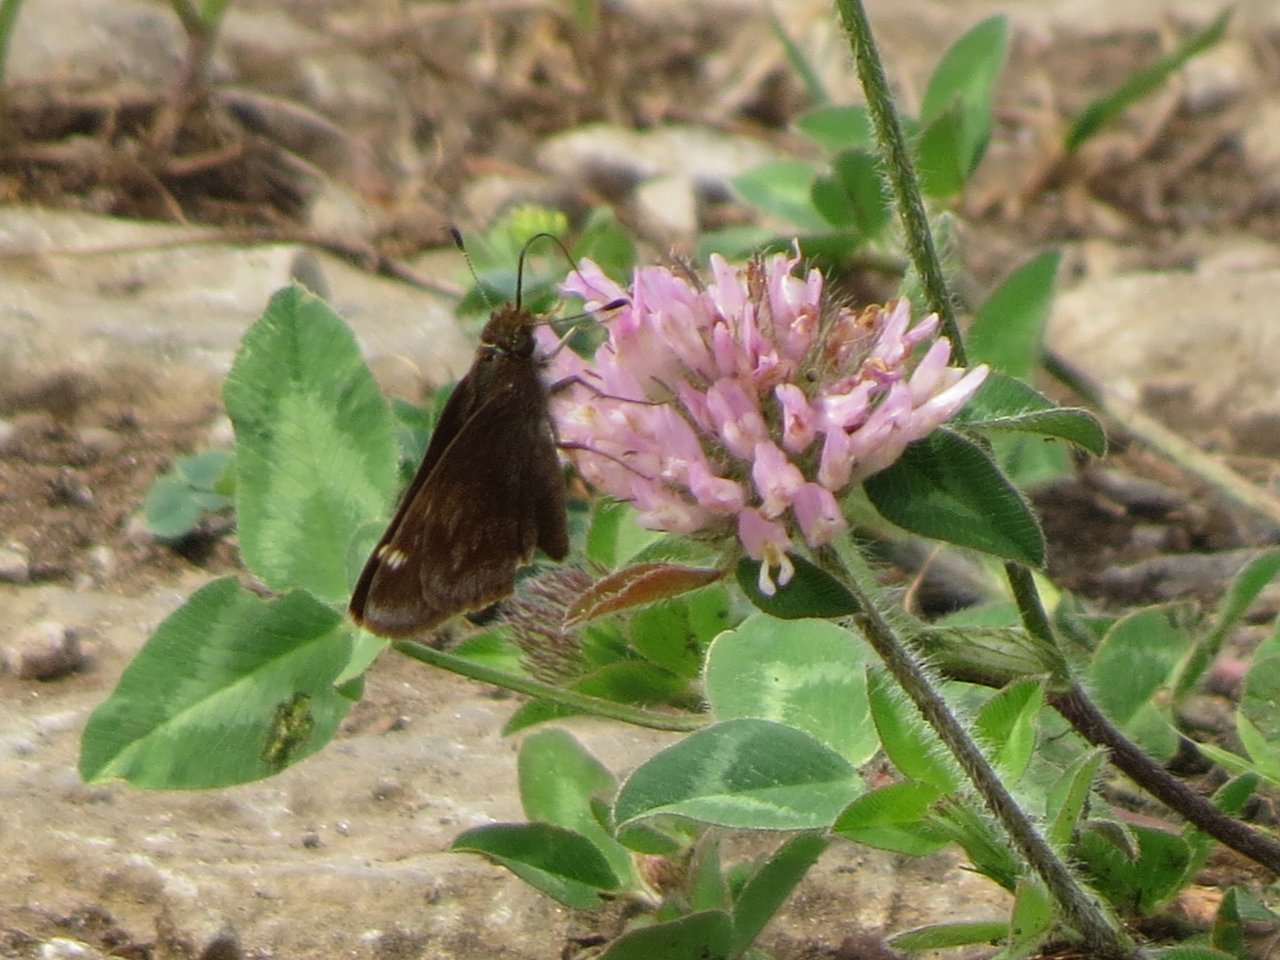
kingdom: Animalia
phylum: Arthropoda
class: Insecta
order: Lepidoptera
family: Hesperiidae
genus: Lon
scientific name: Lon hobomok
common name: Hobomok Skipper
